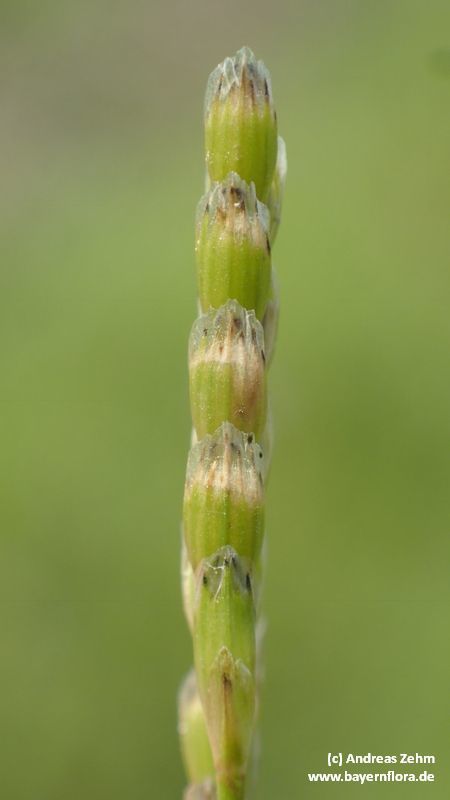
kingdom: Plantae
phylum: Tracheophyta
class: Liliopsida
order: Poales
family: Poaceae
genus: Glyceria
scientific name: Glyceria notata
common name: Plicate sweet-grass
